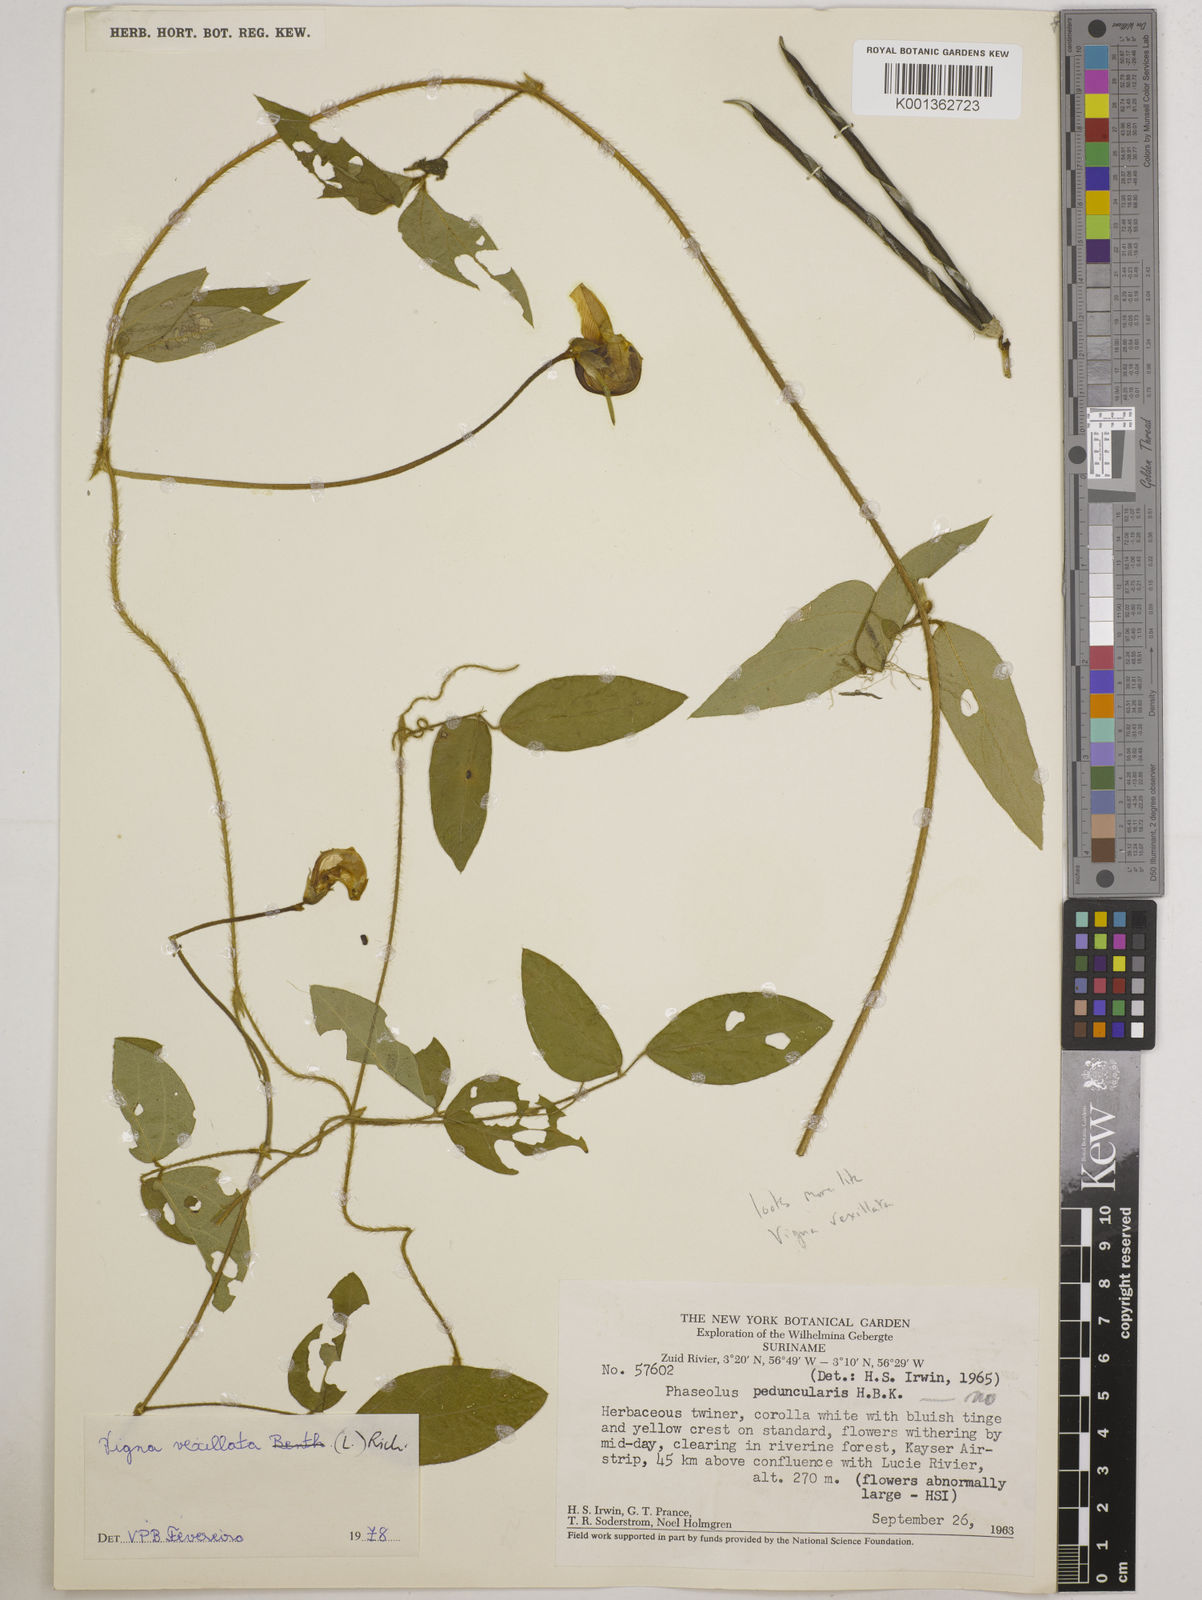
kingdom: Plantae
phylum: Tracheophyta
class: Magnoliopsida
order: Fabales
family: Fabaceae
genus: Vigna
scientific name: Vigna vexillata
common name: Zombi pea
